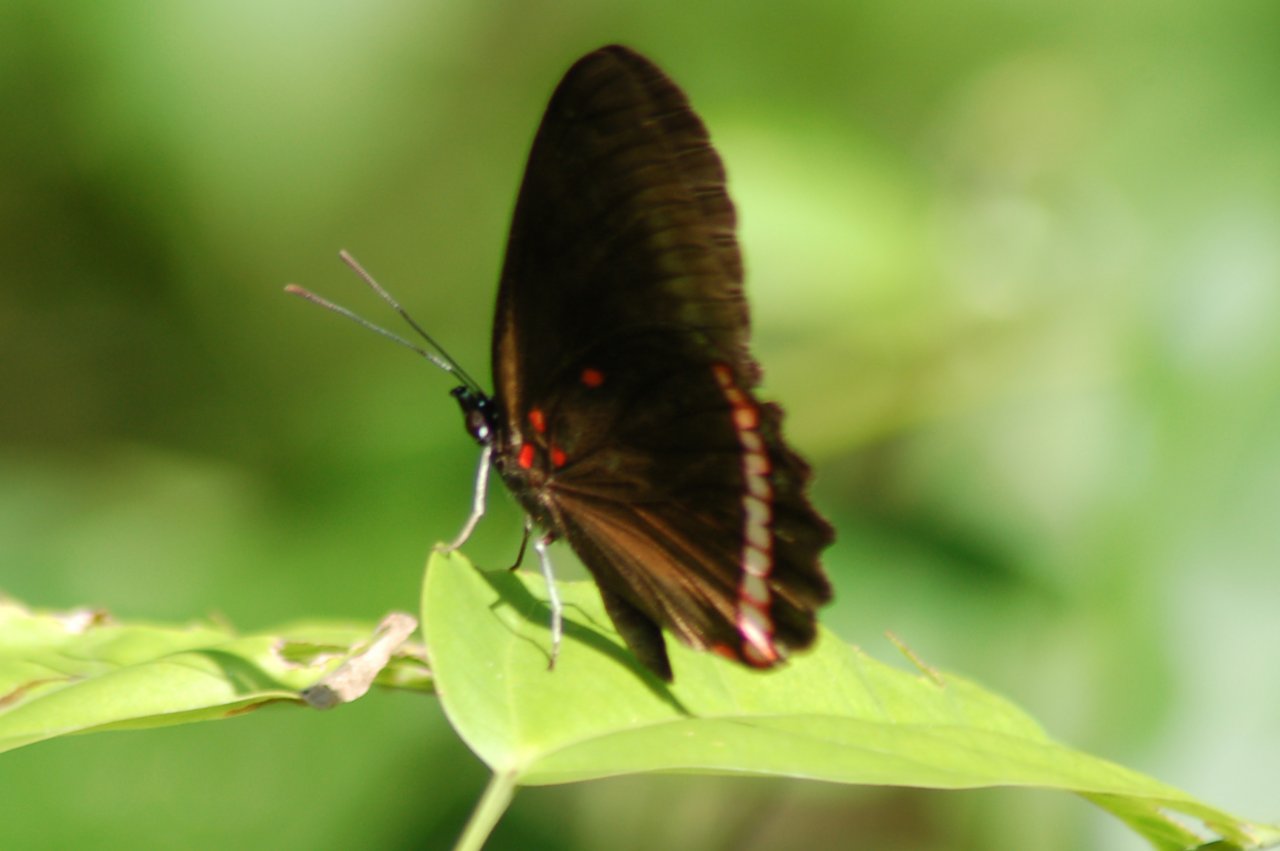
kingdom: Animalia
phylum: Arthropoda
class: Insecta
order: Lepidoptera
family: Sesiidae
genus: Sesia
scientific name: Sesia Biblis hyperia
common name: Red Rim
